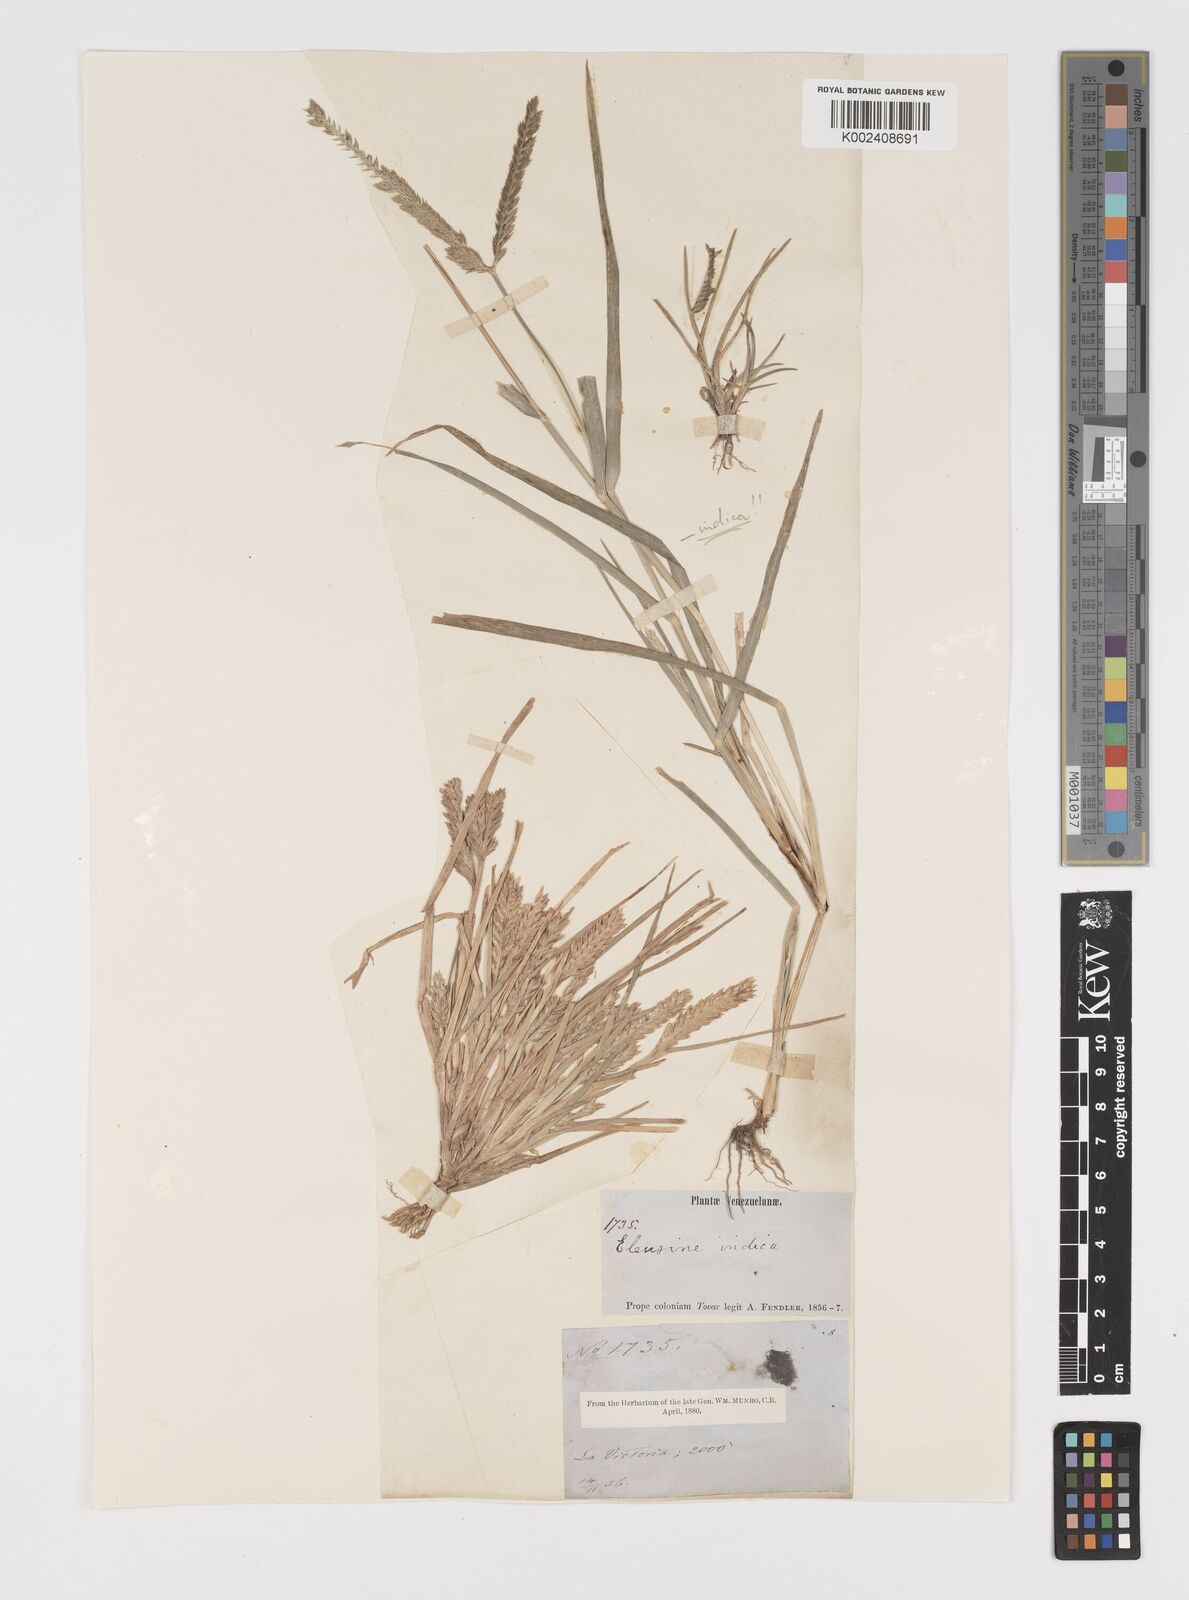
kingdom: Plantae
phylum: Tracheophyta
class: Liliopsida
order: Poales
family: Poaceae
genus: Eleusine
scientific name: Eleusine indica
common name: Yard-grass
